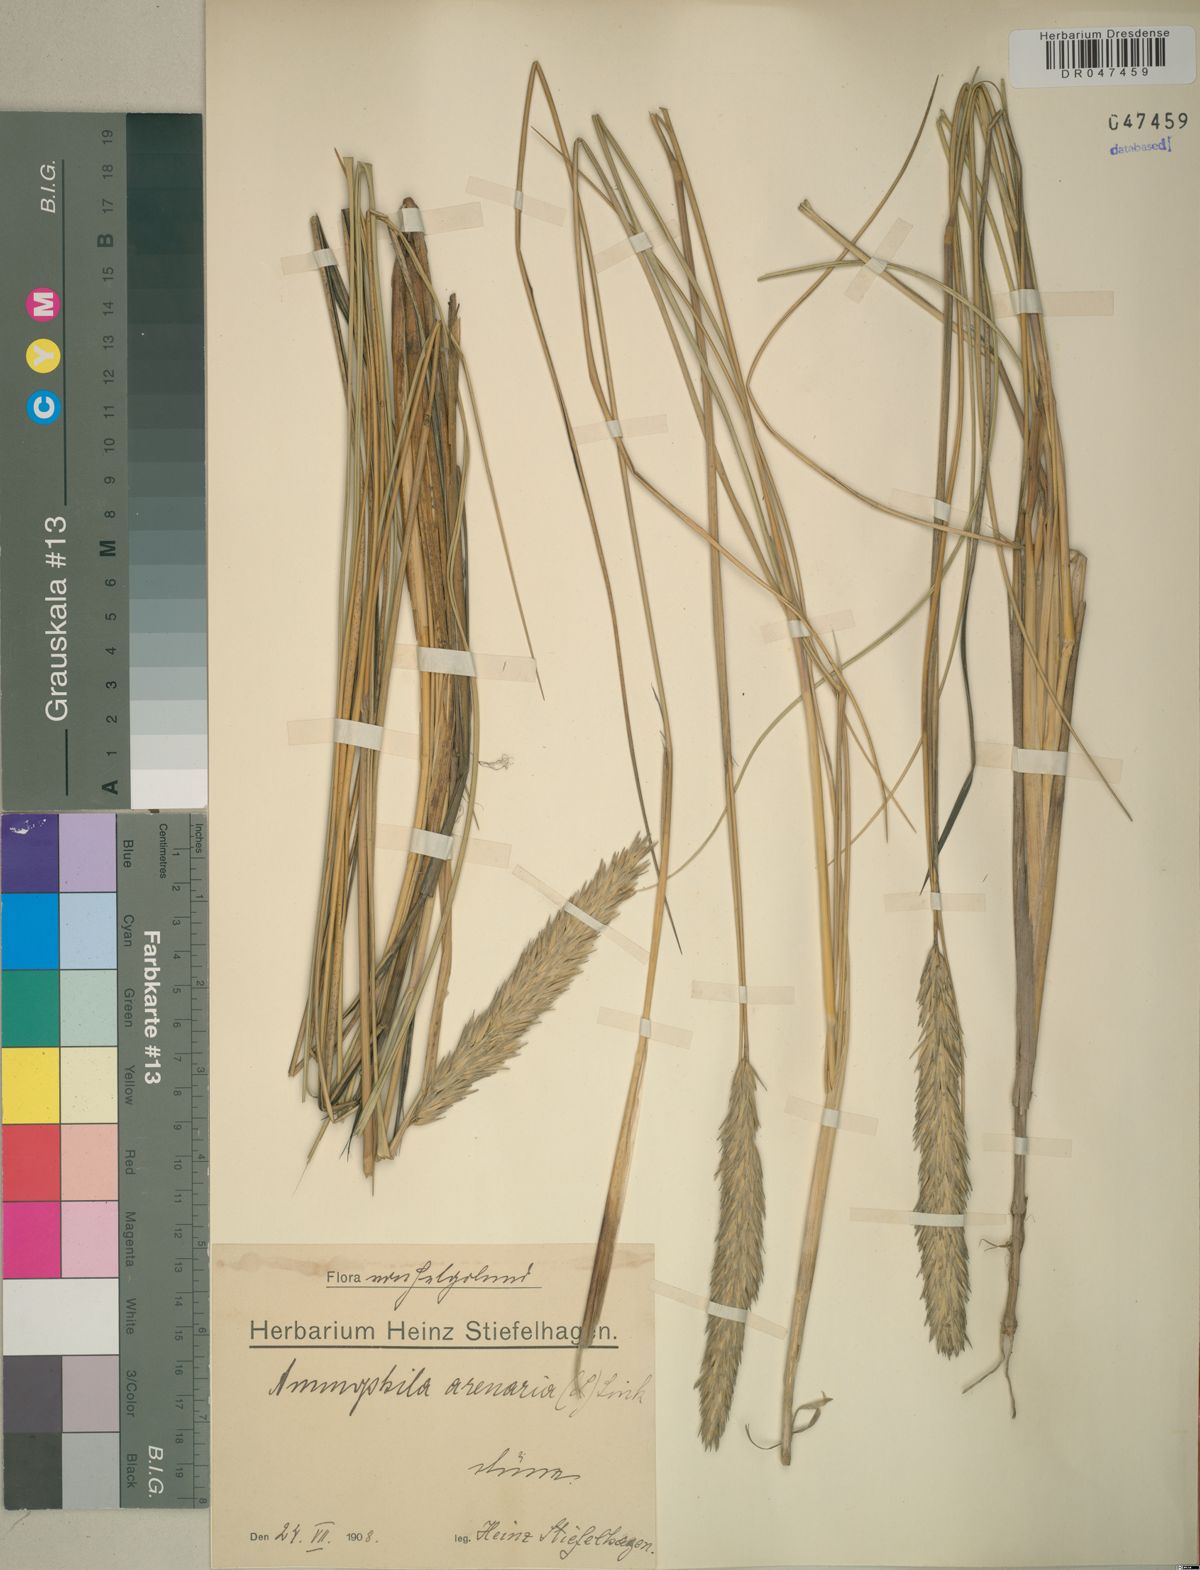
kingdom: Plantae
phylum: Tracheophyta
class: Liliopsida
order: Poales
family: Poaceae
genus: Calamagrostis
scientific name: Calamagrostis arenaria
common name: European beachgrass
